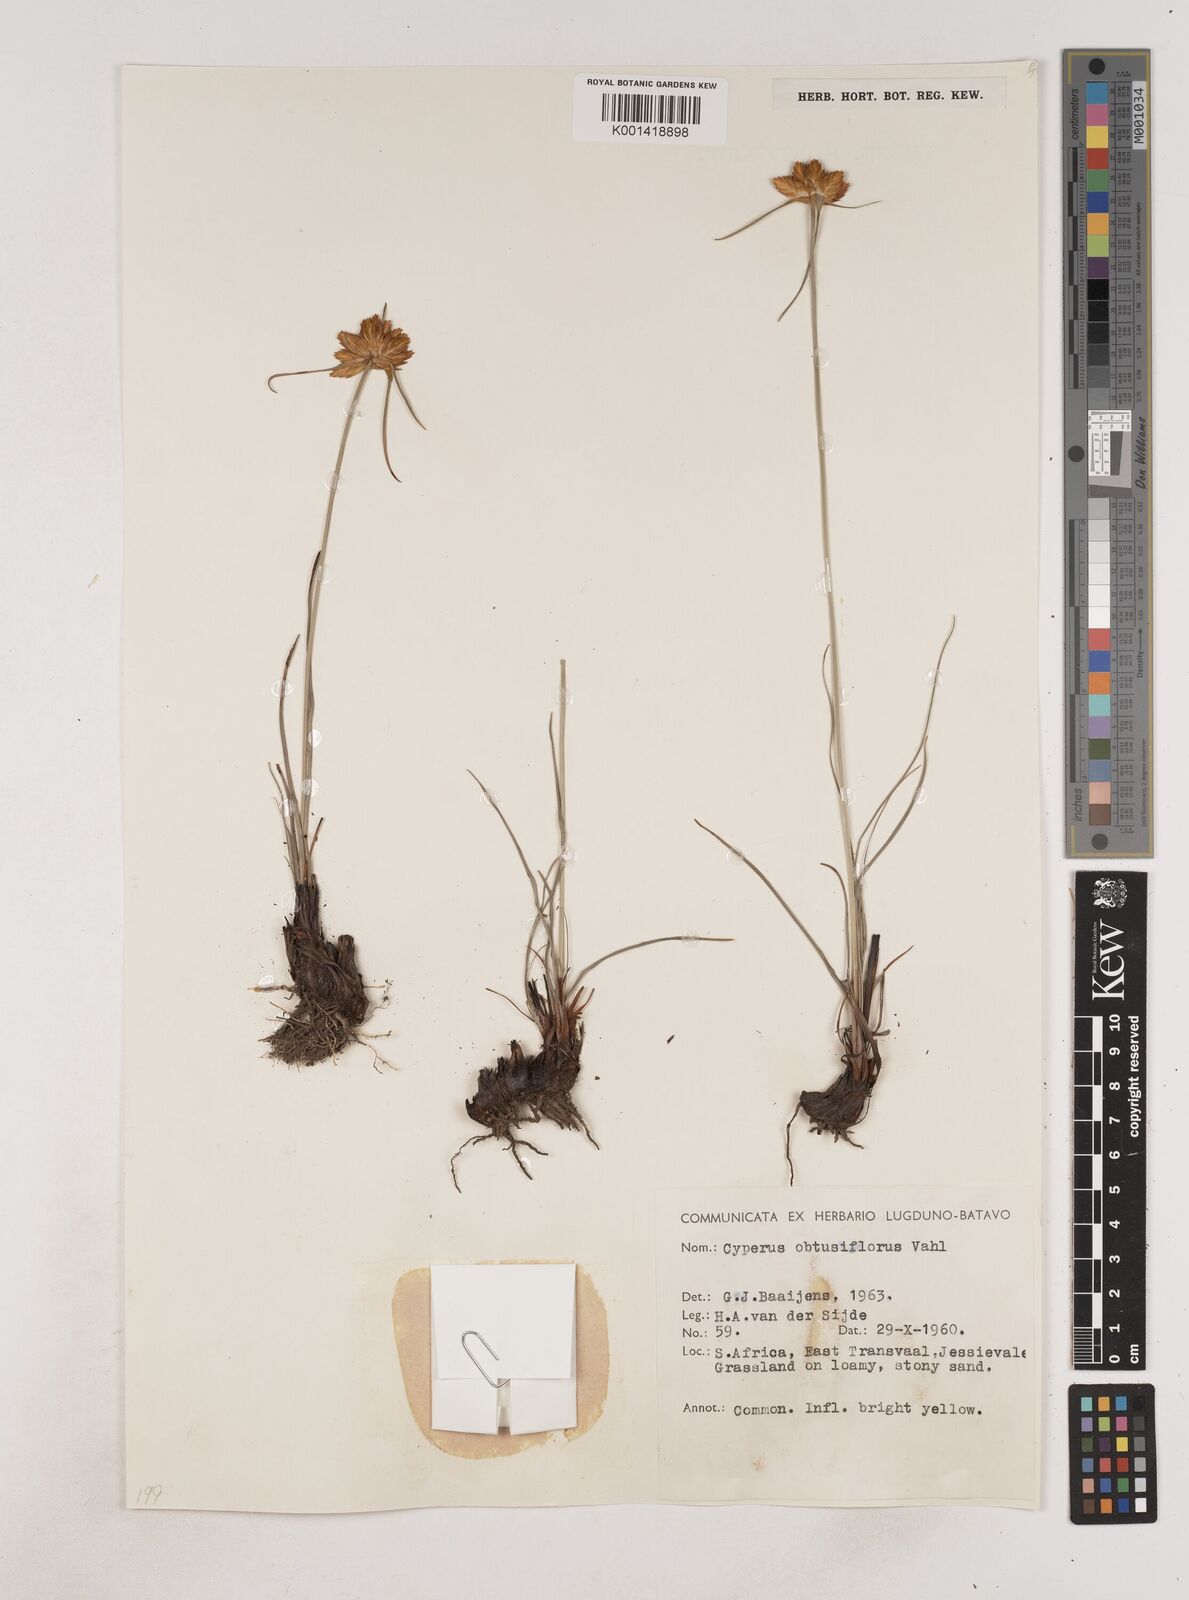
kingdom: Plantae
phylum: Tracheophyta
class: Liliopsida
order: Poales
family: Cyperaceae
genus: Cyperus
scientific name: Cyperus sphaerocephalus
